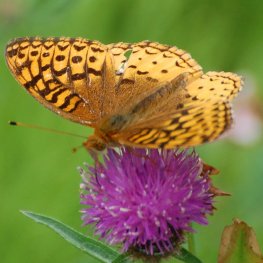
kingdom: Animalia
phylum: Arthropoda
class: Insecta
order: Lepidoptera
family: Nymphalidae
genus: Speyeria
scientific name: Speyeria cybele
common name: Great Spangled Fritillary
